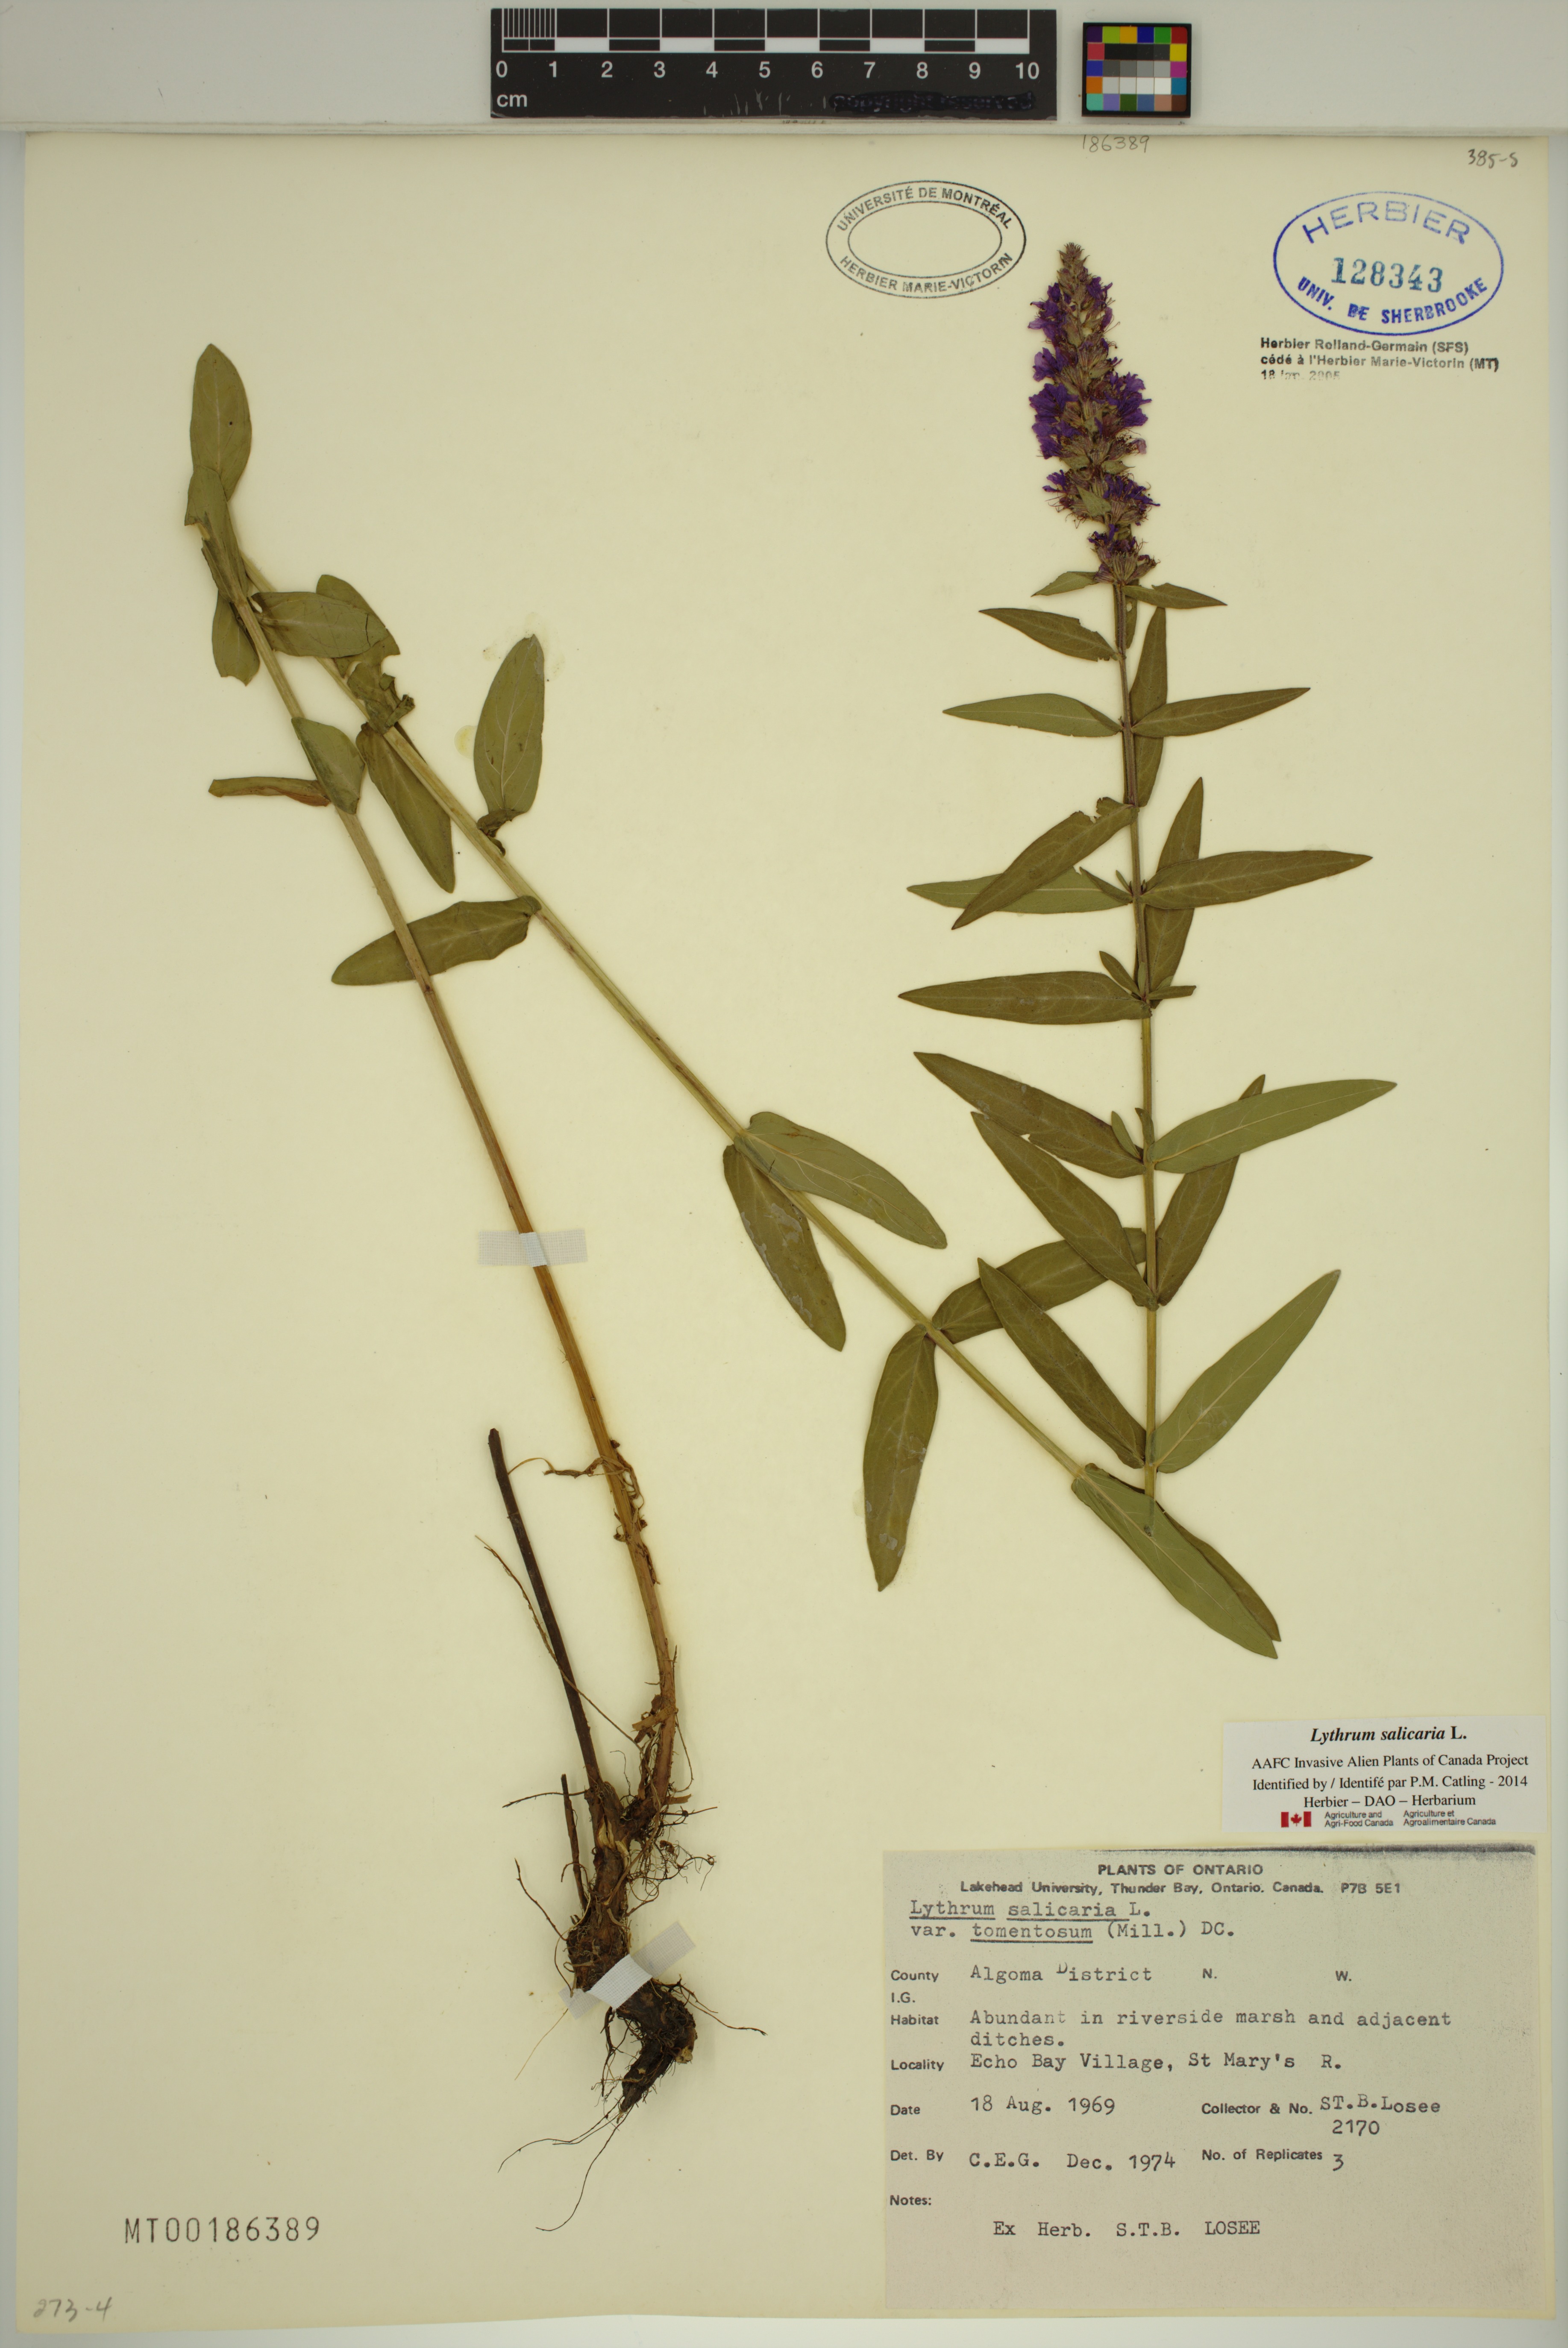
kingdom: Plantae
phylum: Tracheophyta
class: Magnoliopsida
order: Myrtales
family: Lythraceae
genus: Lythrum
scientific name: Lythrum salicaria
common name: Purple loosestrife
